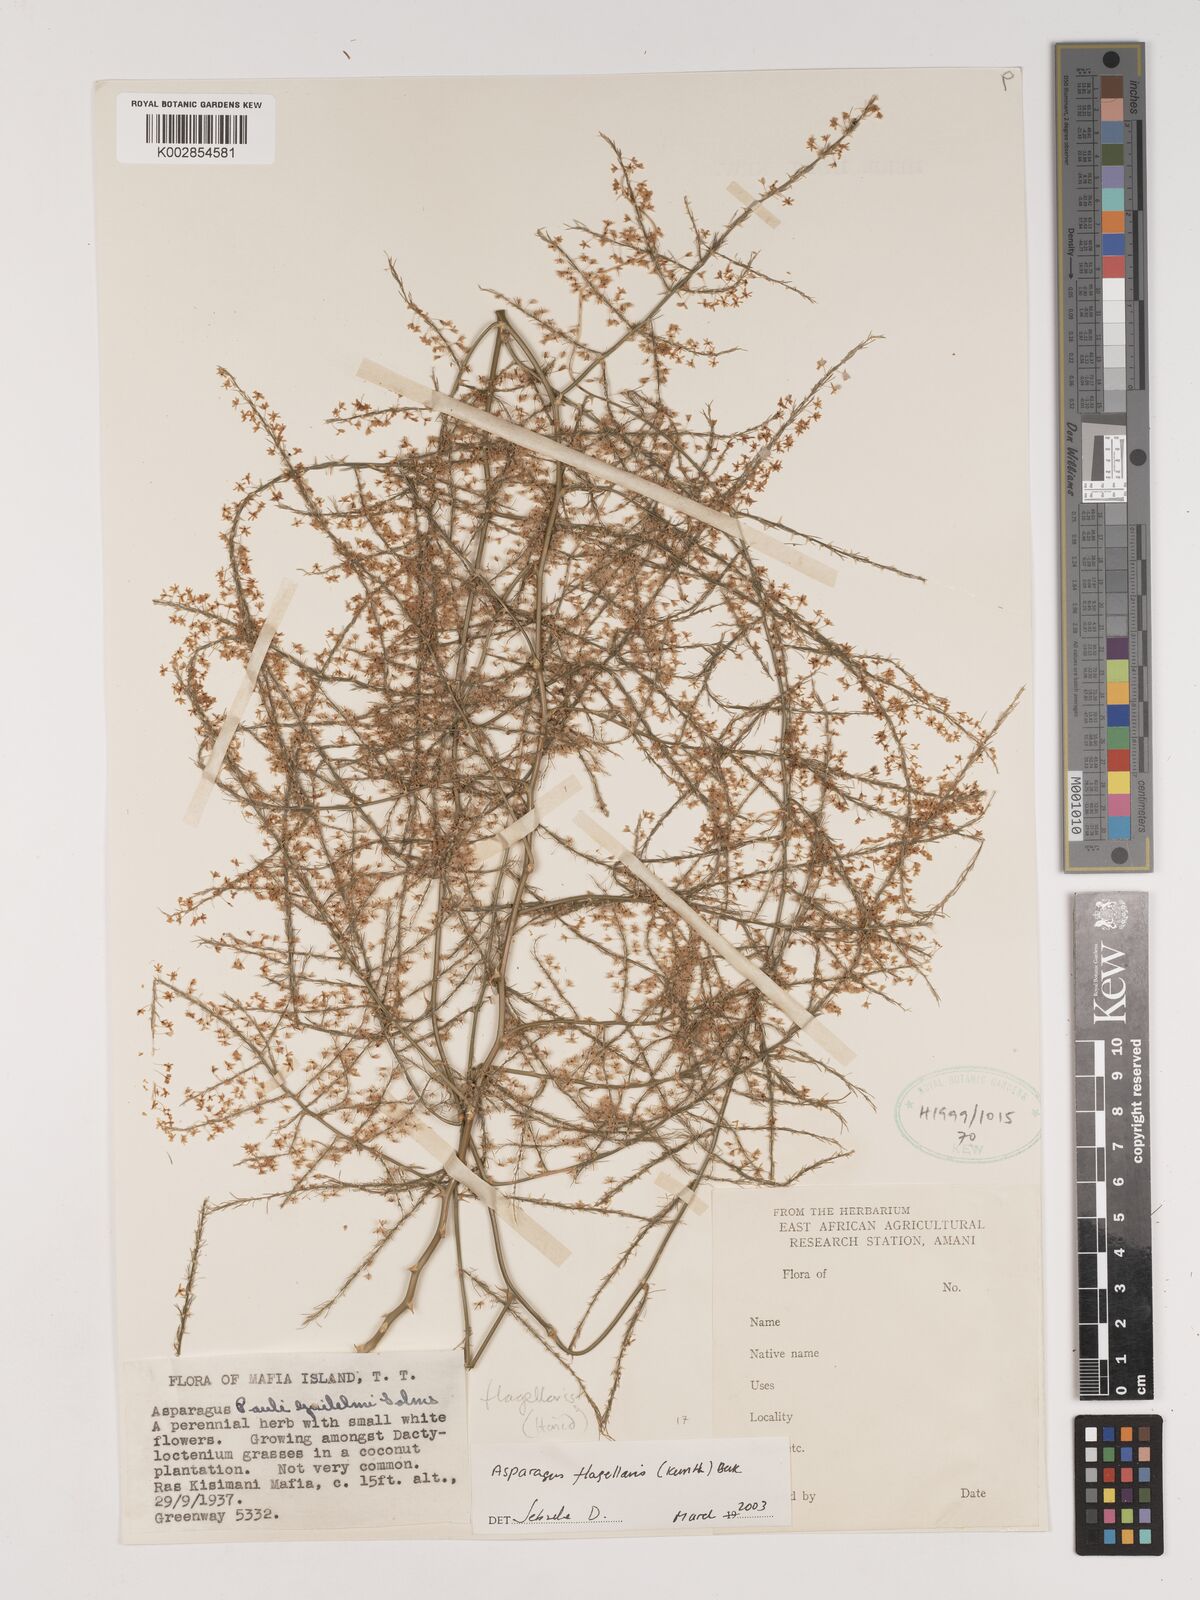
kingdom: Plantae
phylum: Tracheophyta
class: Liliopsida
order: Asparagales
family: Asparagaceae
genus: Asparagus
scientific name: Asparagus flagellaris
